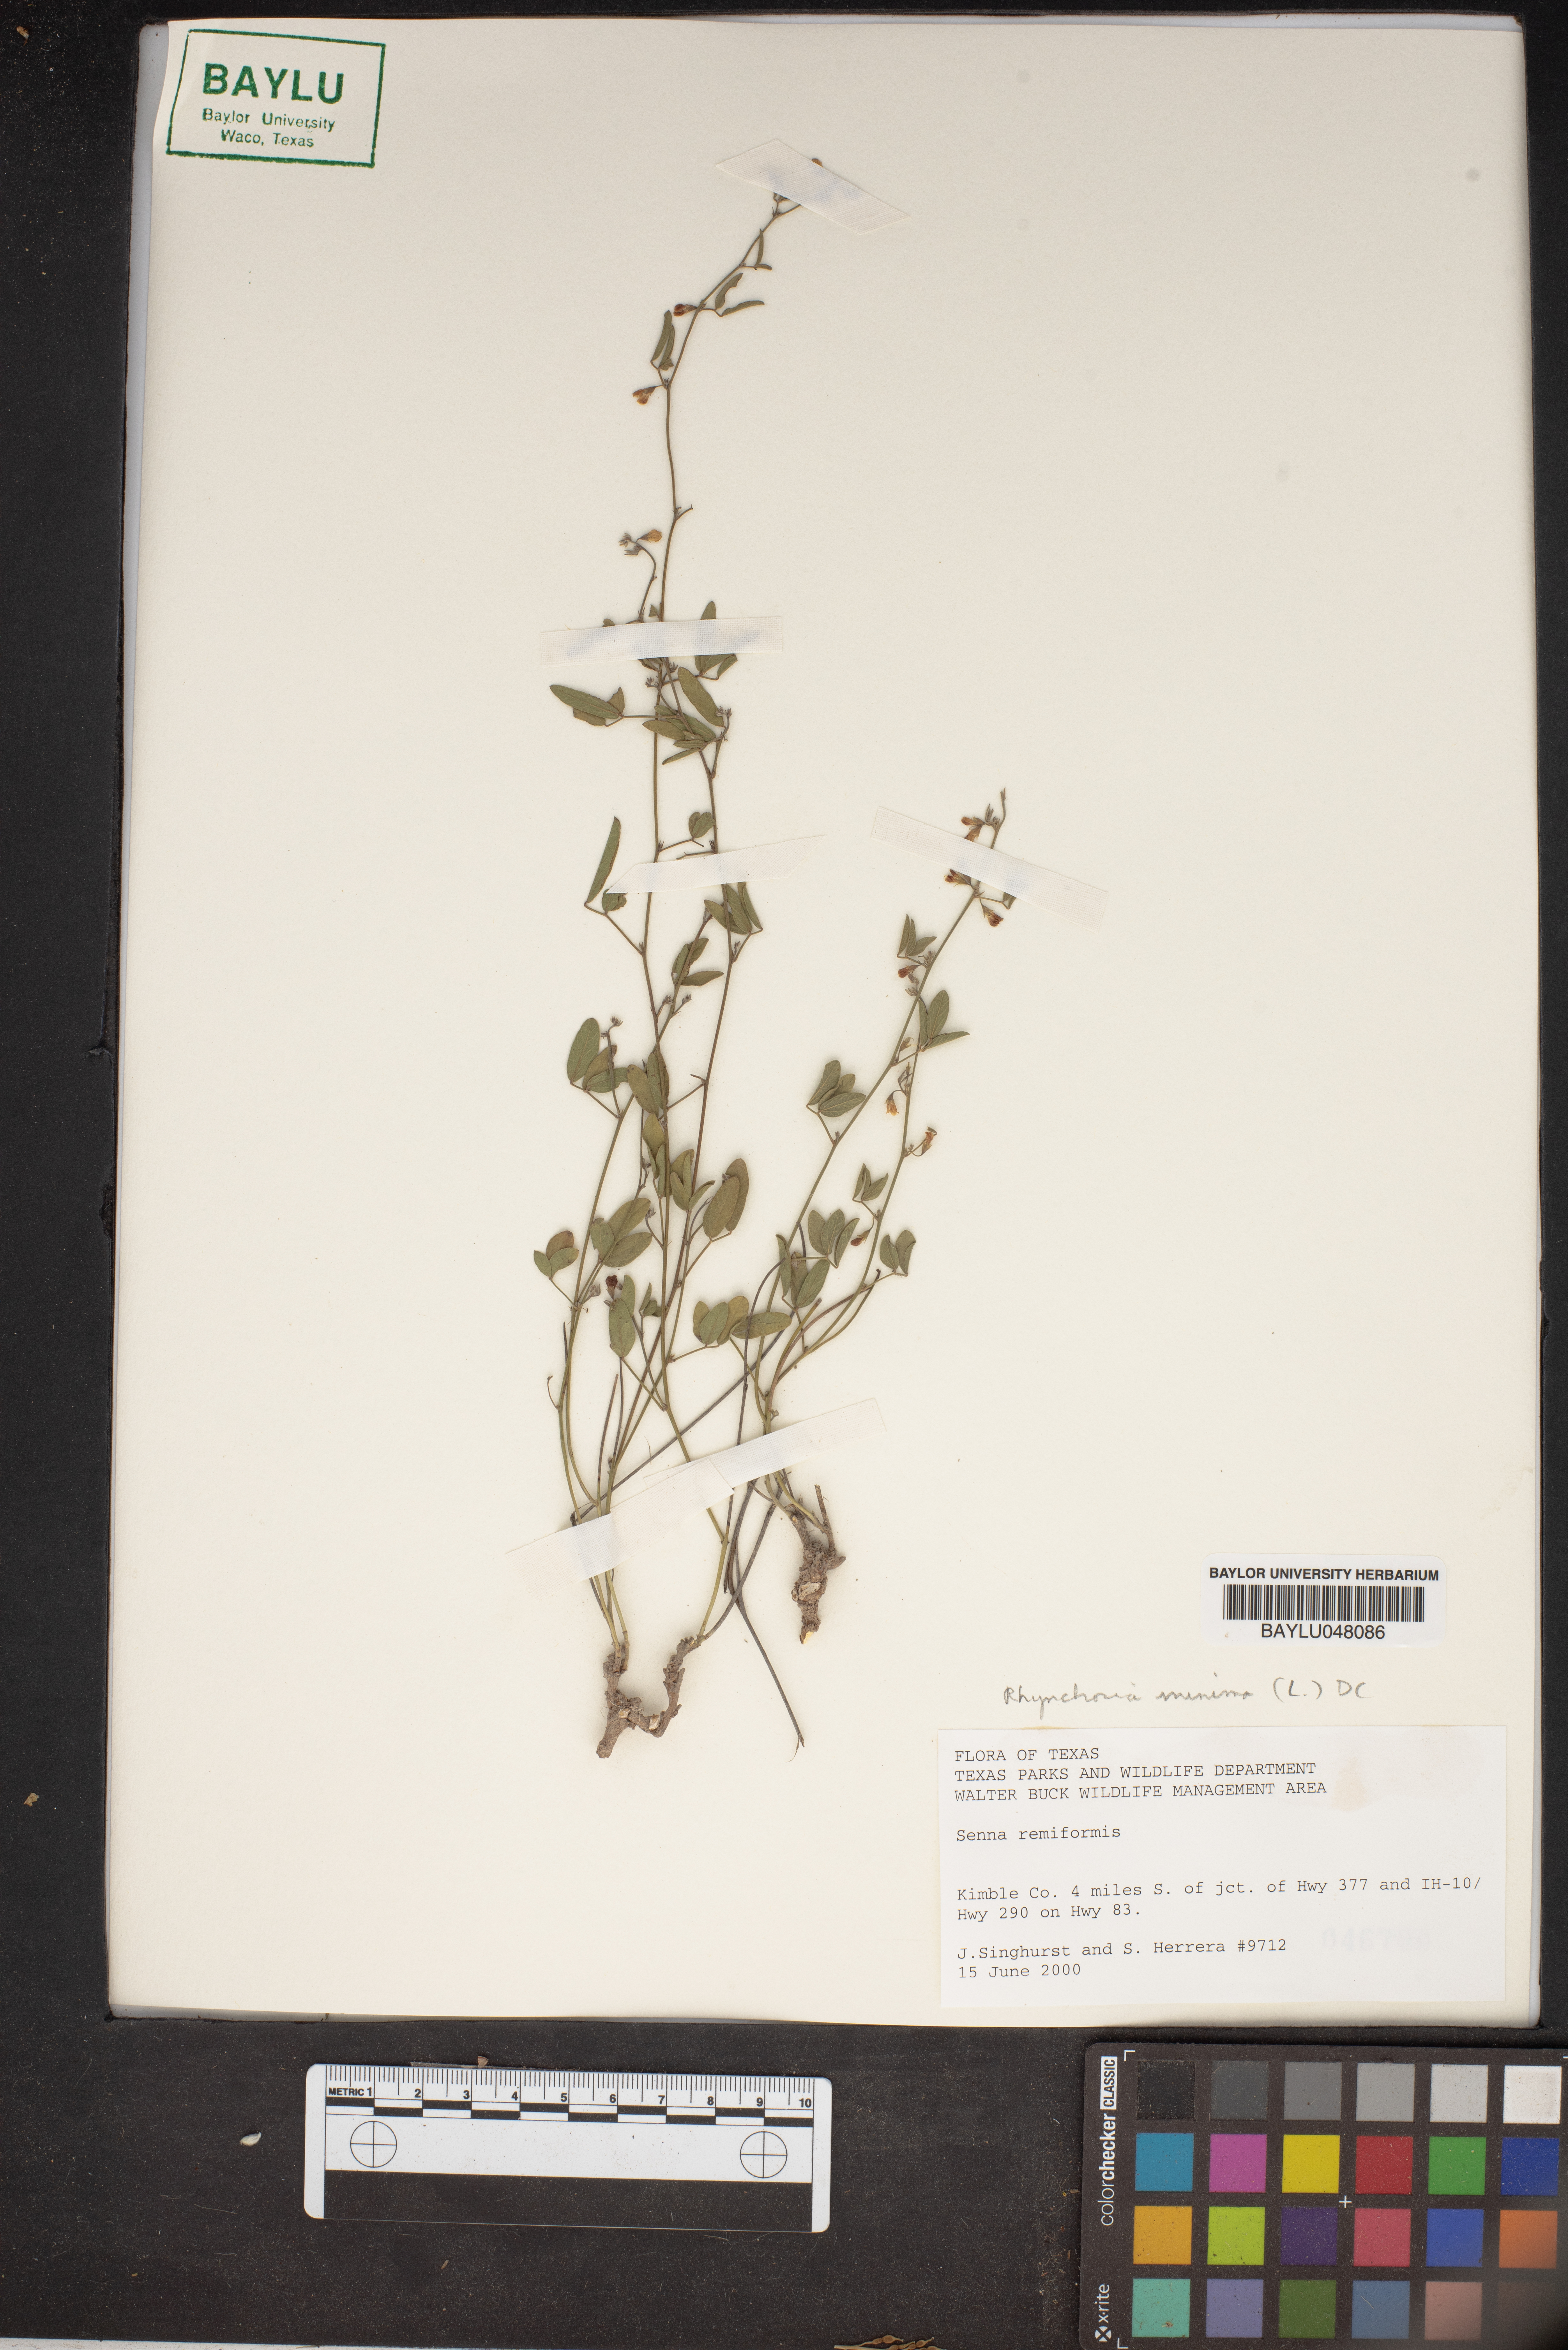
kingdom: Plantae
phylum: Tracheophyta
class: Magnoliopsida
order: Fabales
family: Fabaceae
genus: Senna
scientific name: Senna reniformis
